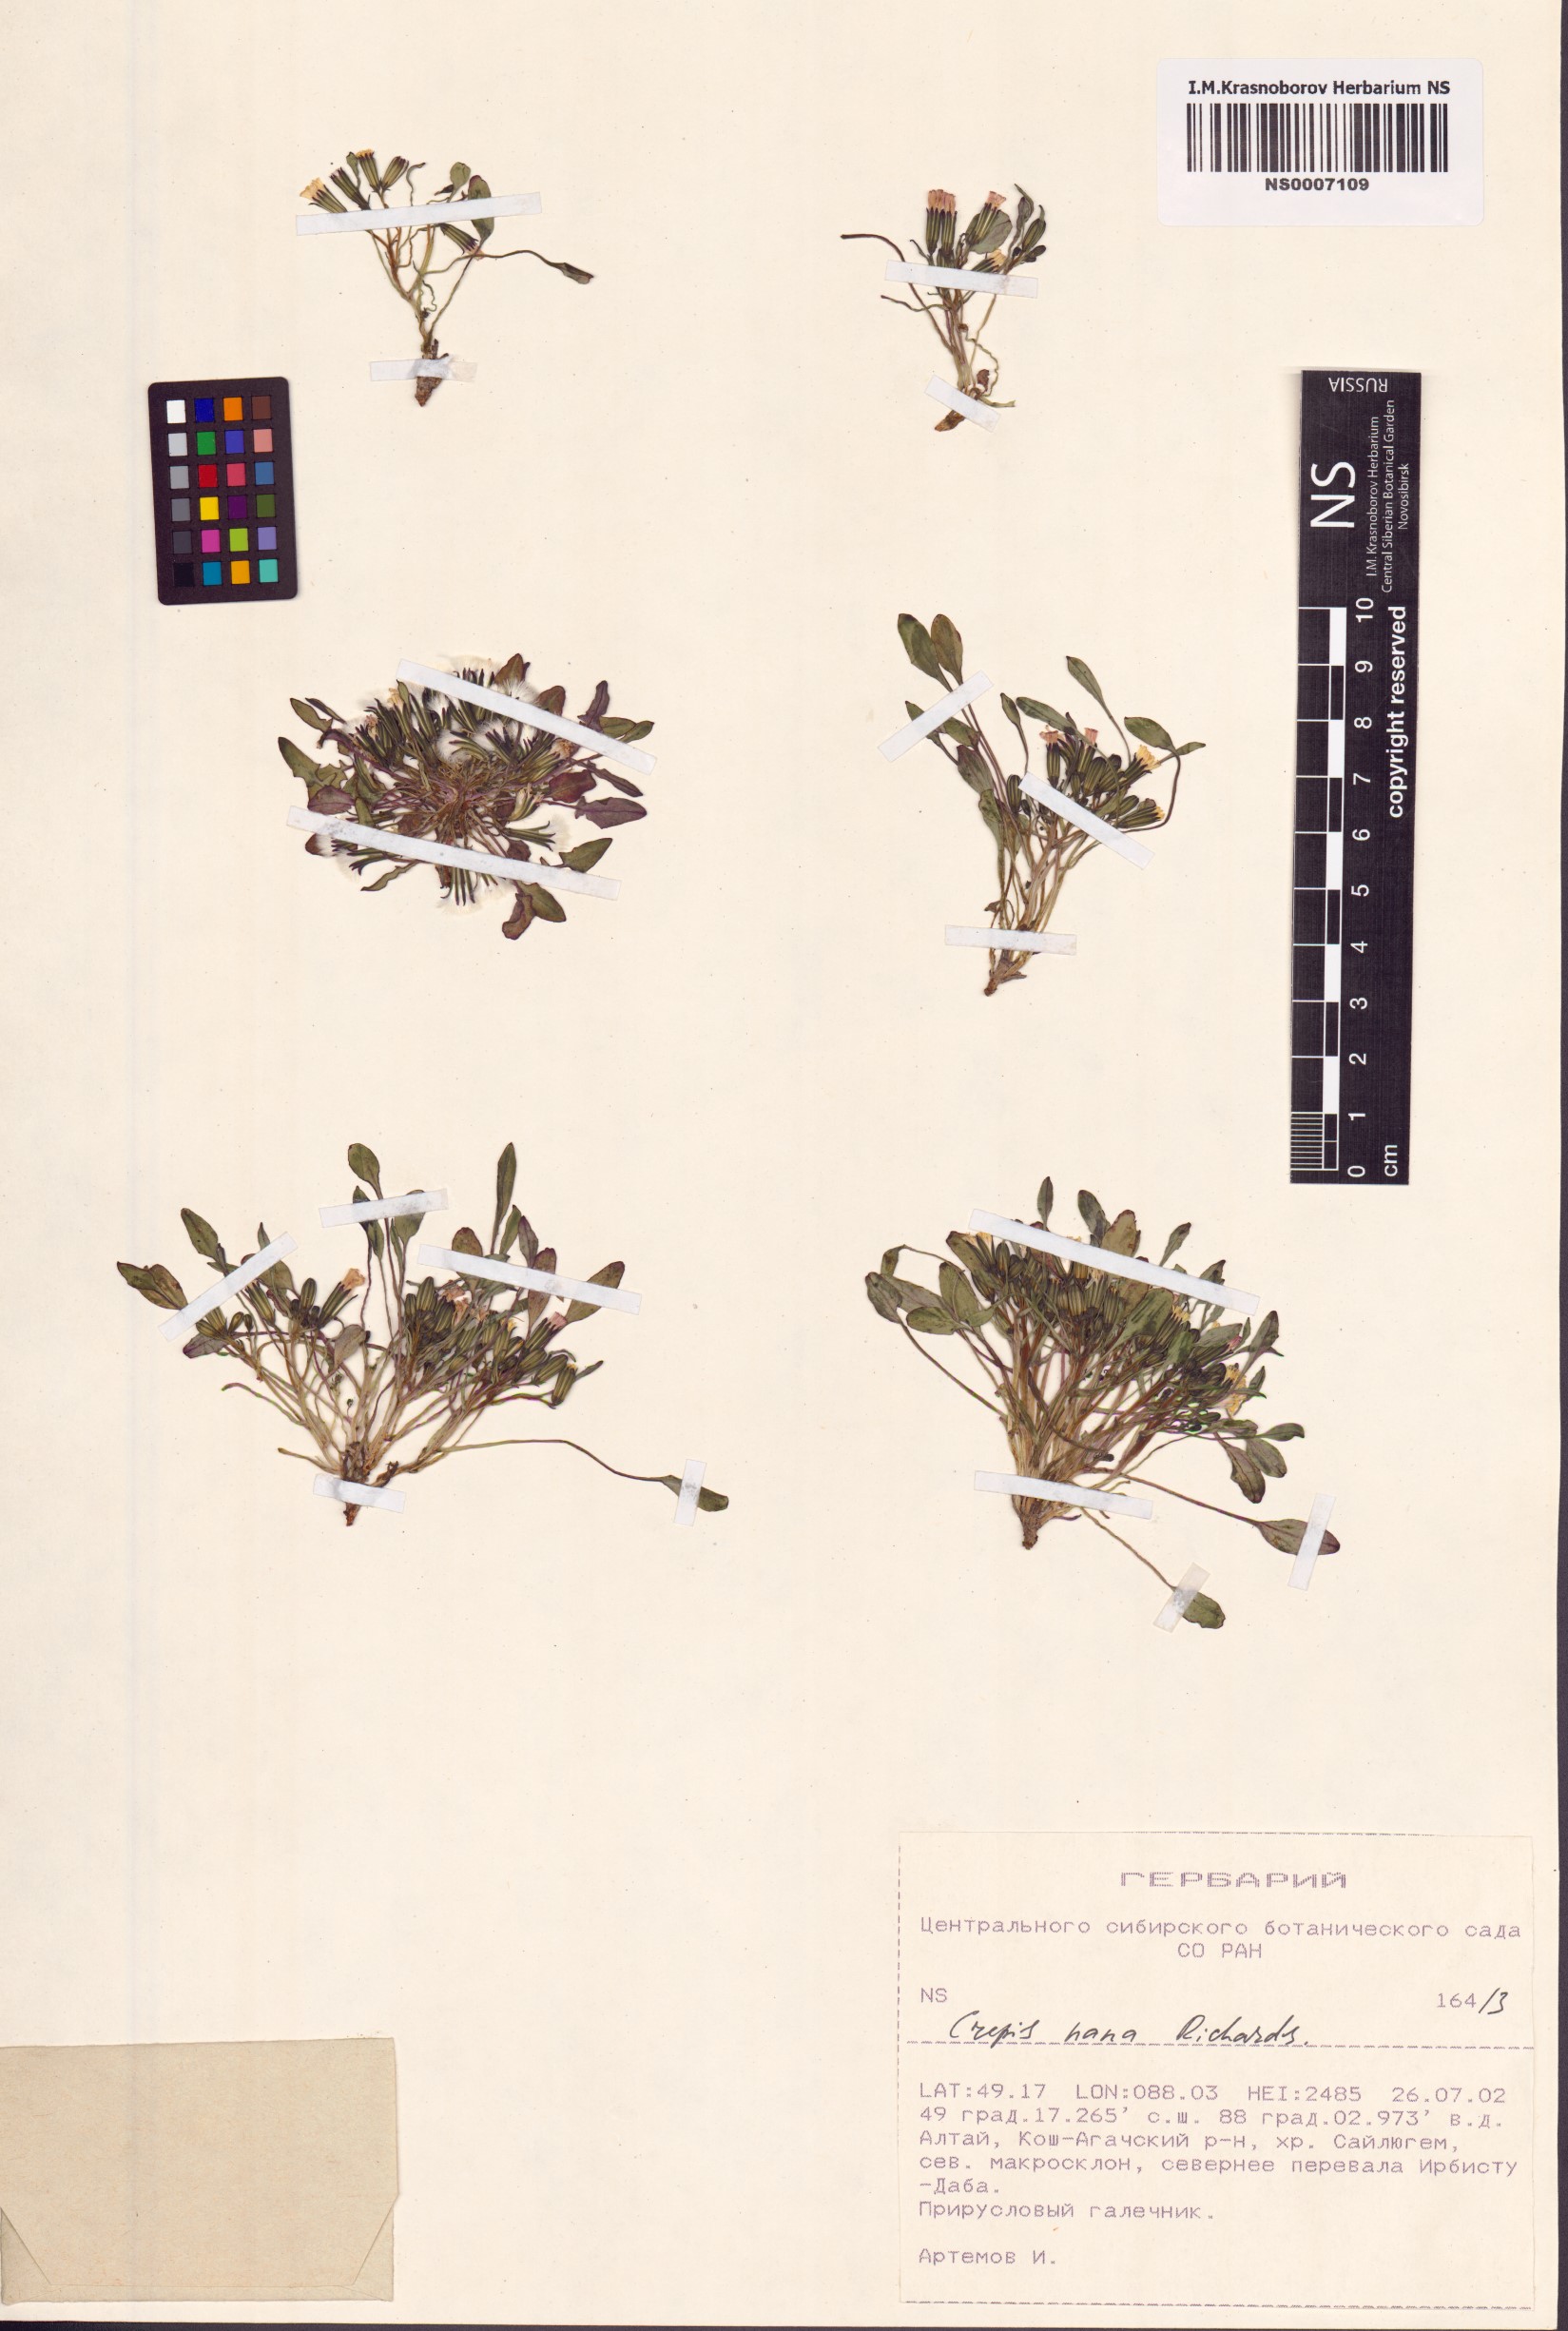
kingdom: Plantae
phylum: Tracheophyta
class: Magnoliopsida
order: Asterales
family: Asteraceae
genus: Askellia
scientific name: Askellia pygmaea
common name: Dwarf alpine hawksbeard
